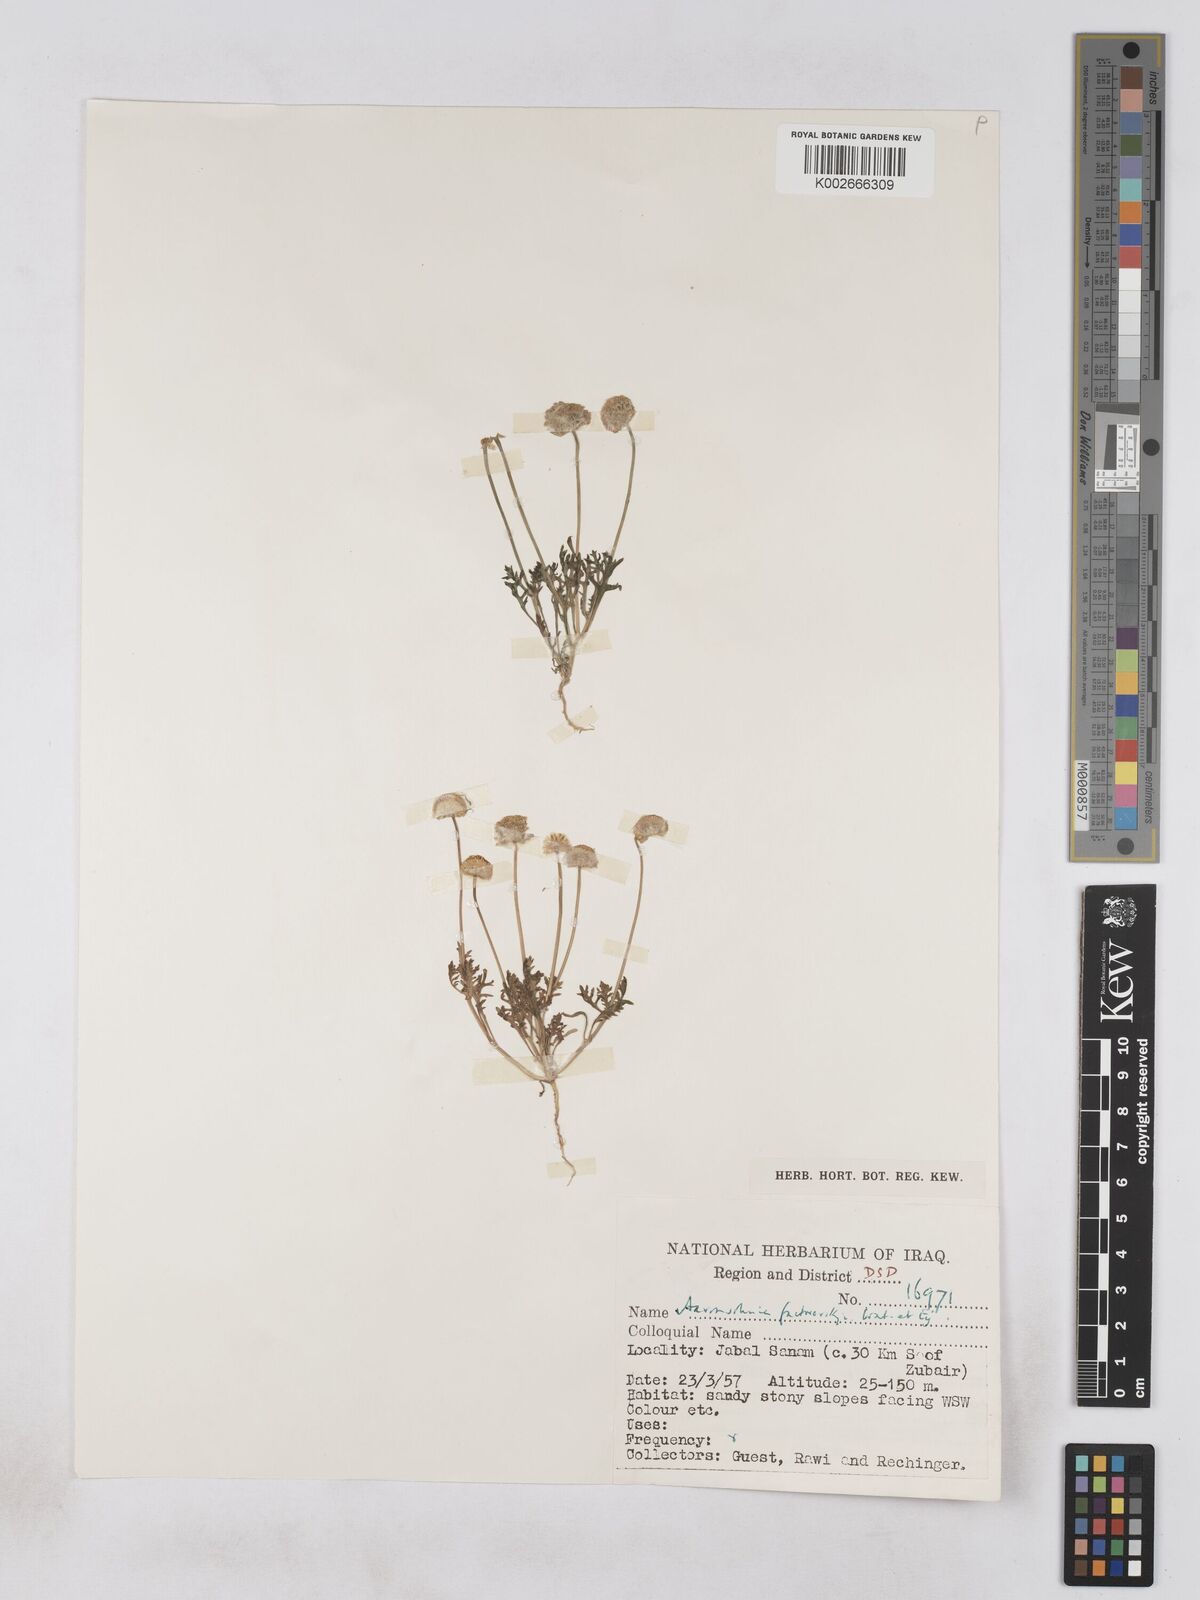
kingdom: Plantae
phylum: Tracheophyta
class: Magnoliopsida
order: Asterales
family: Asteraceae
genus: Otoglyphis
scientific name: Otoglyphis factorovskyi
